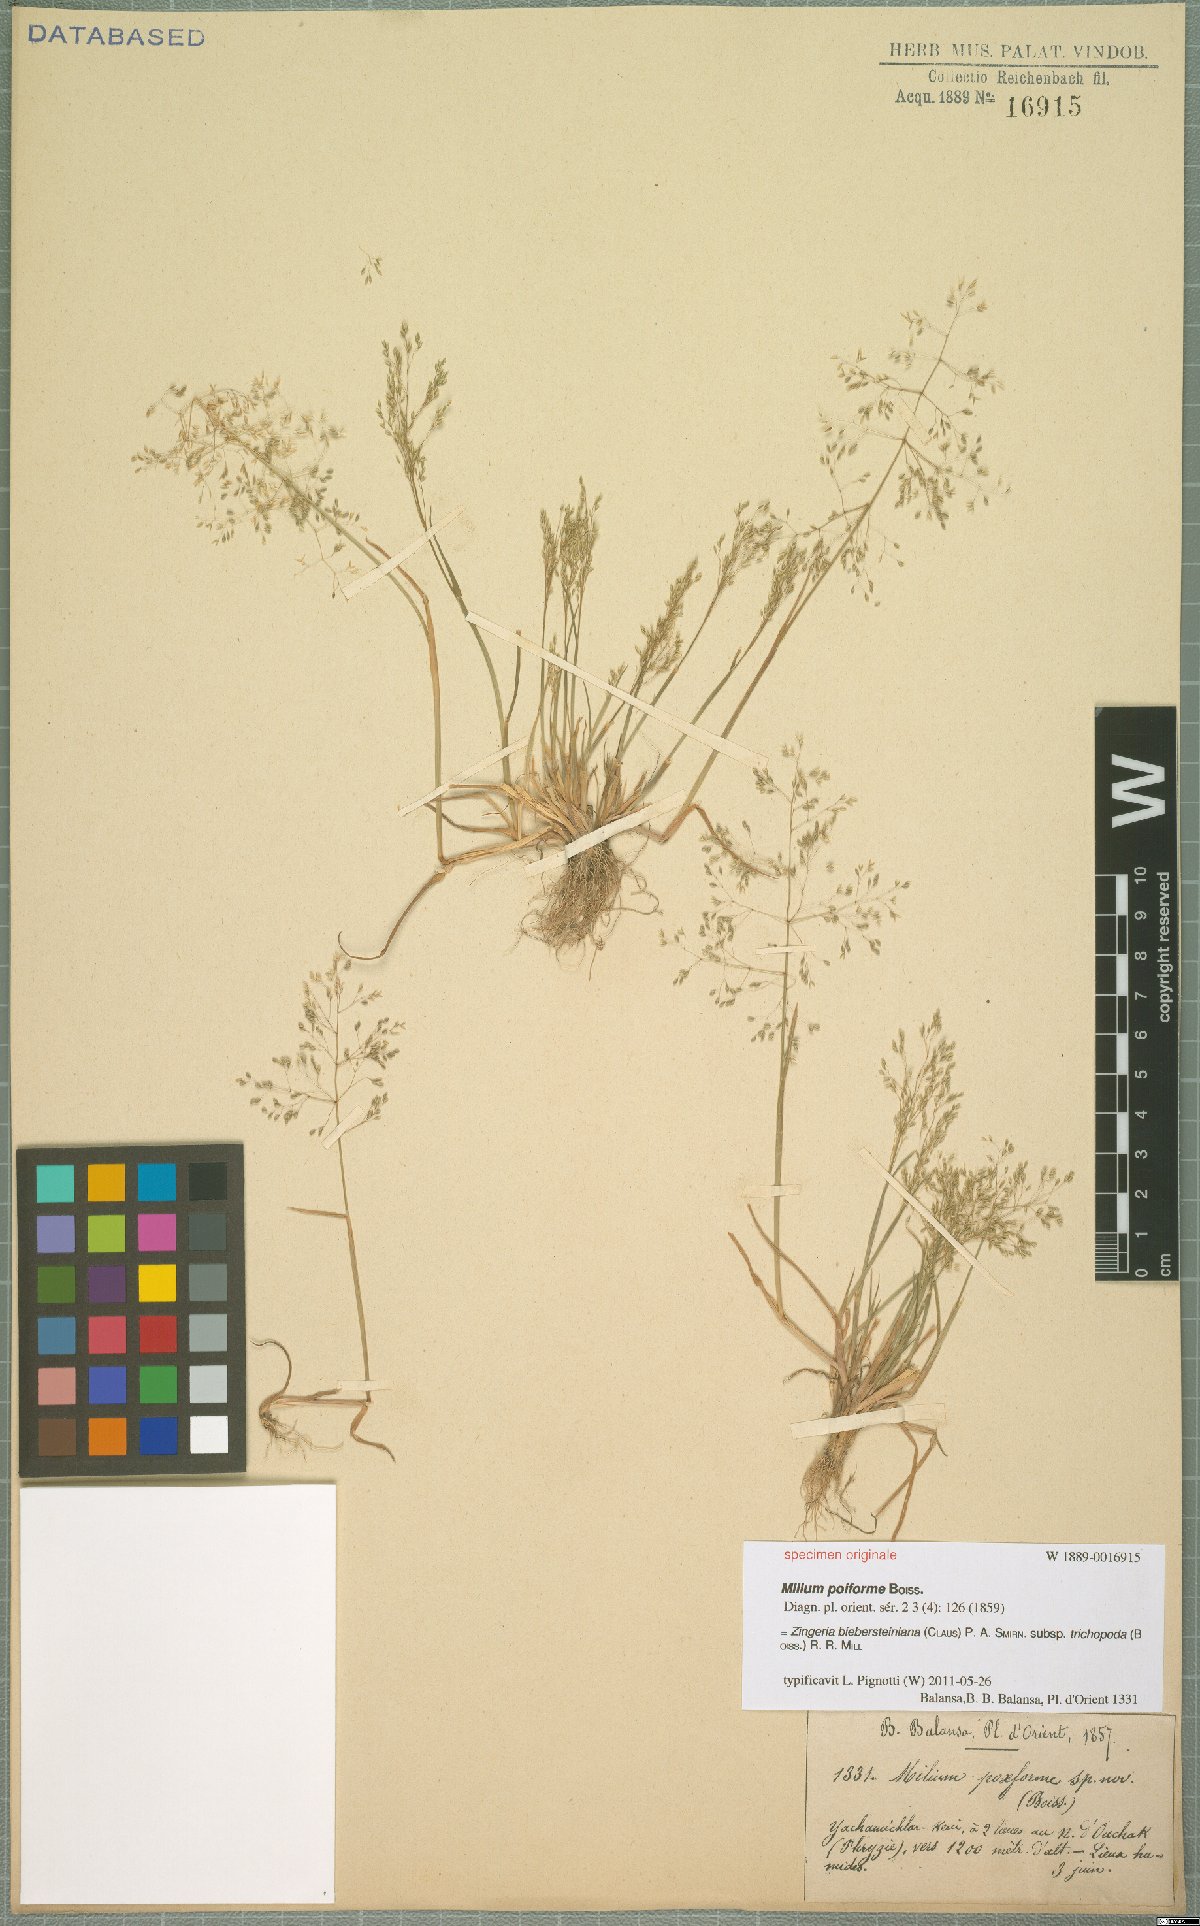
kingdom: Plantae
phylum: Tracheophyta
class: Liliopsida
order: Poales
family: Poaceae
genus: Colpodium
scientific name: Colpodium trichopodum
